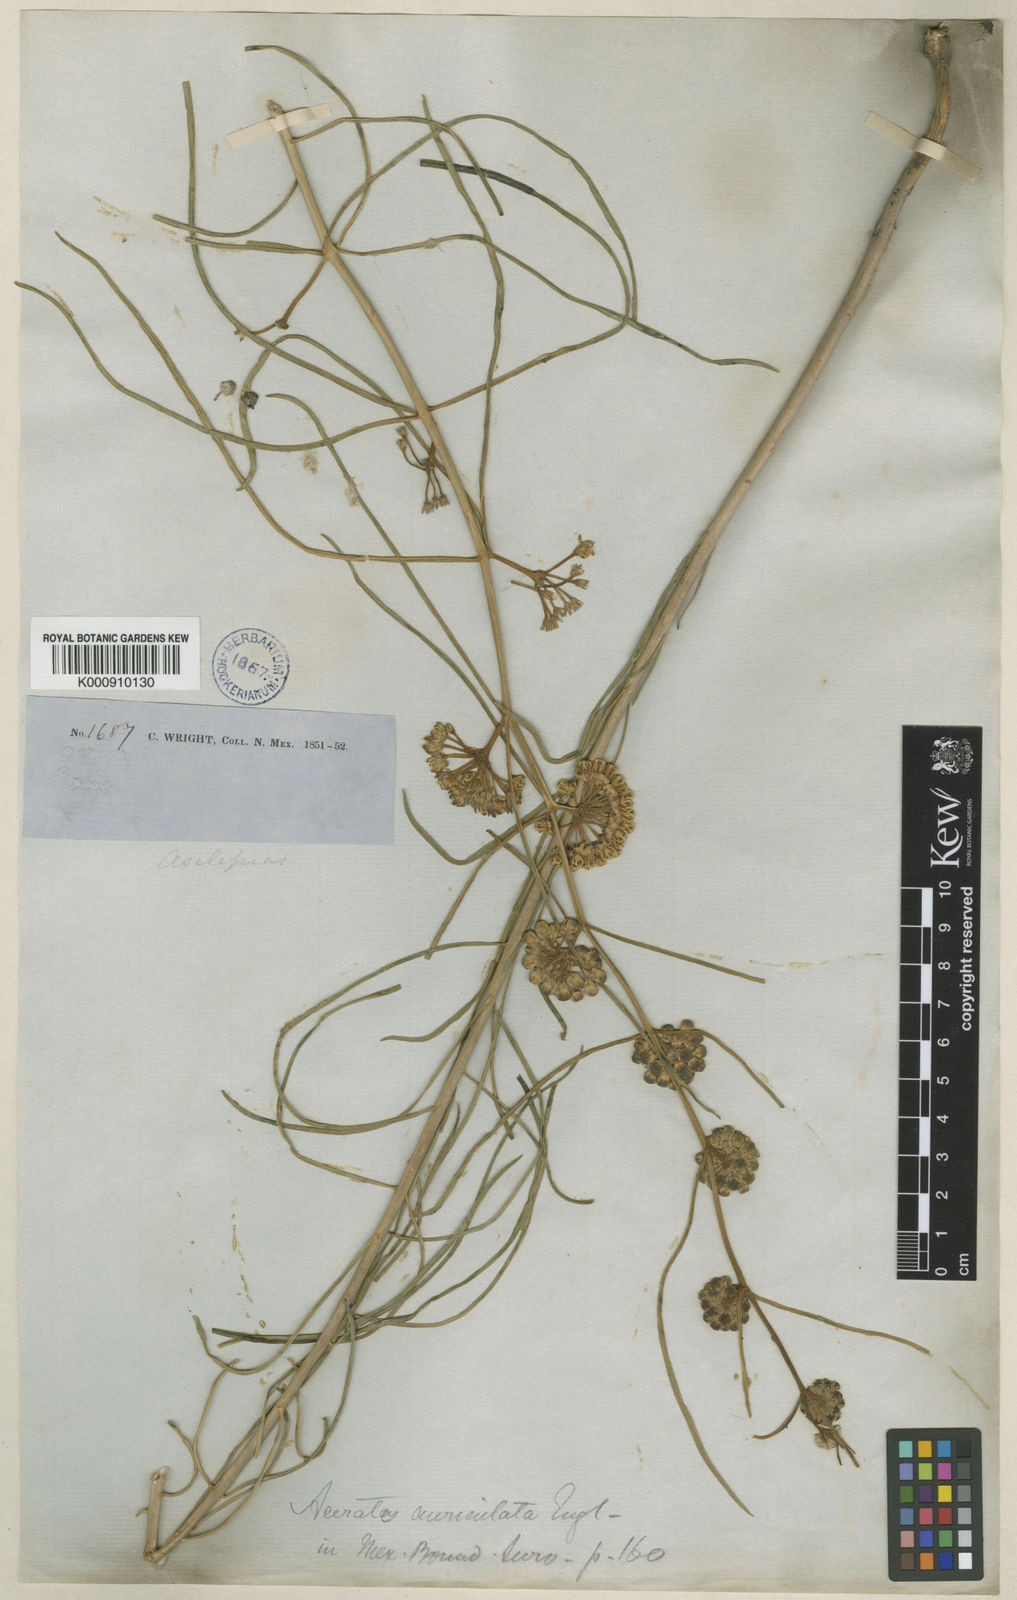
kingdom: Plantae
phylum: Tracheophyta
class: Magnoliopsida
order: Gentianales
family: Apocynaceae
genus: Asclepias
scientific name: Asclepias engelmanniana
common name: Engelmann's milkweed
